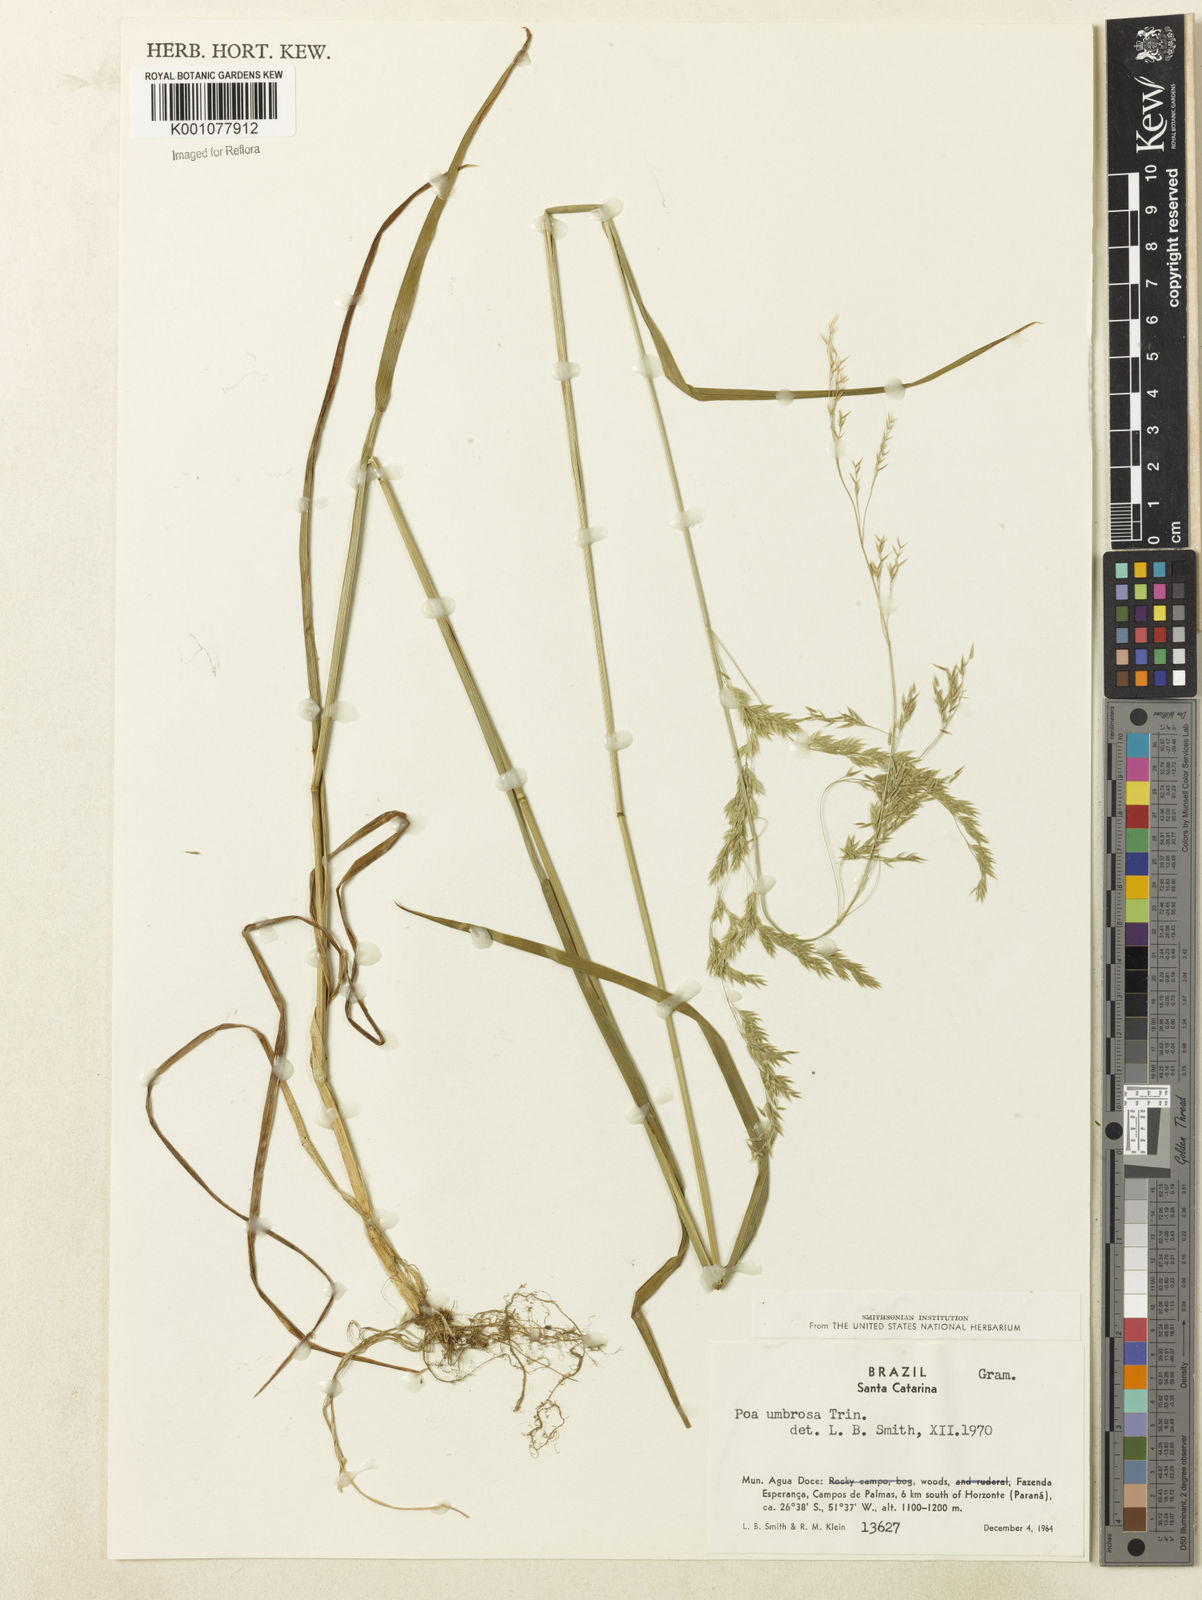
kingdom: Plantae
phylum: Tracheophyta
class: Liliopsida
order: Poales
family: Poaceae
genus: Poa
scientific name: Poa umbrosa
